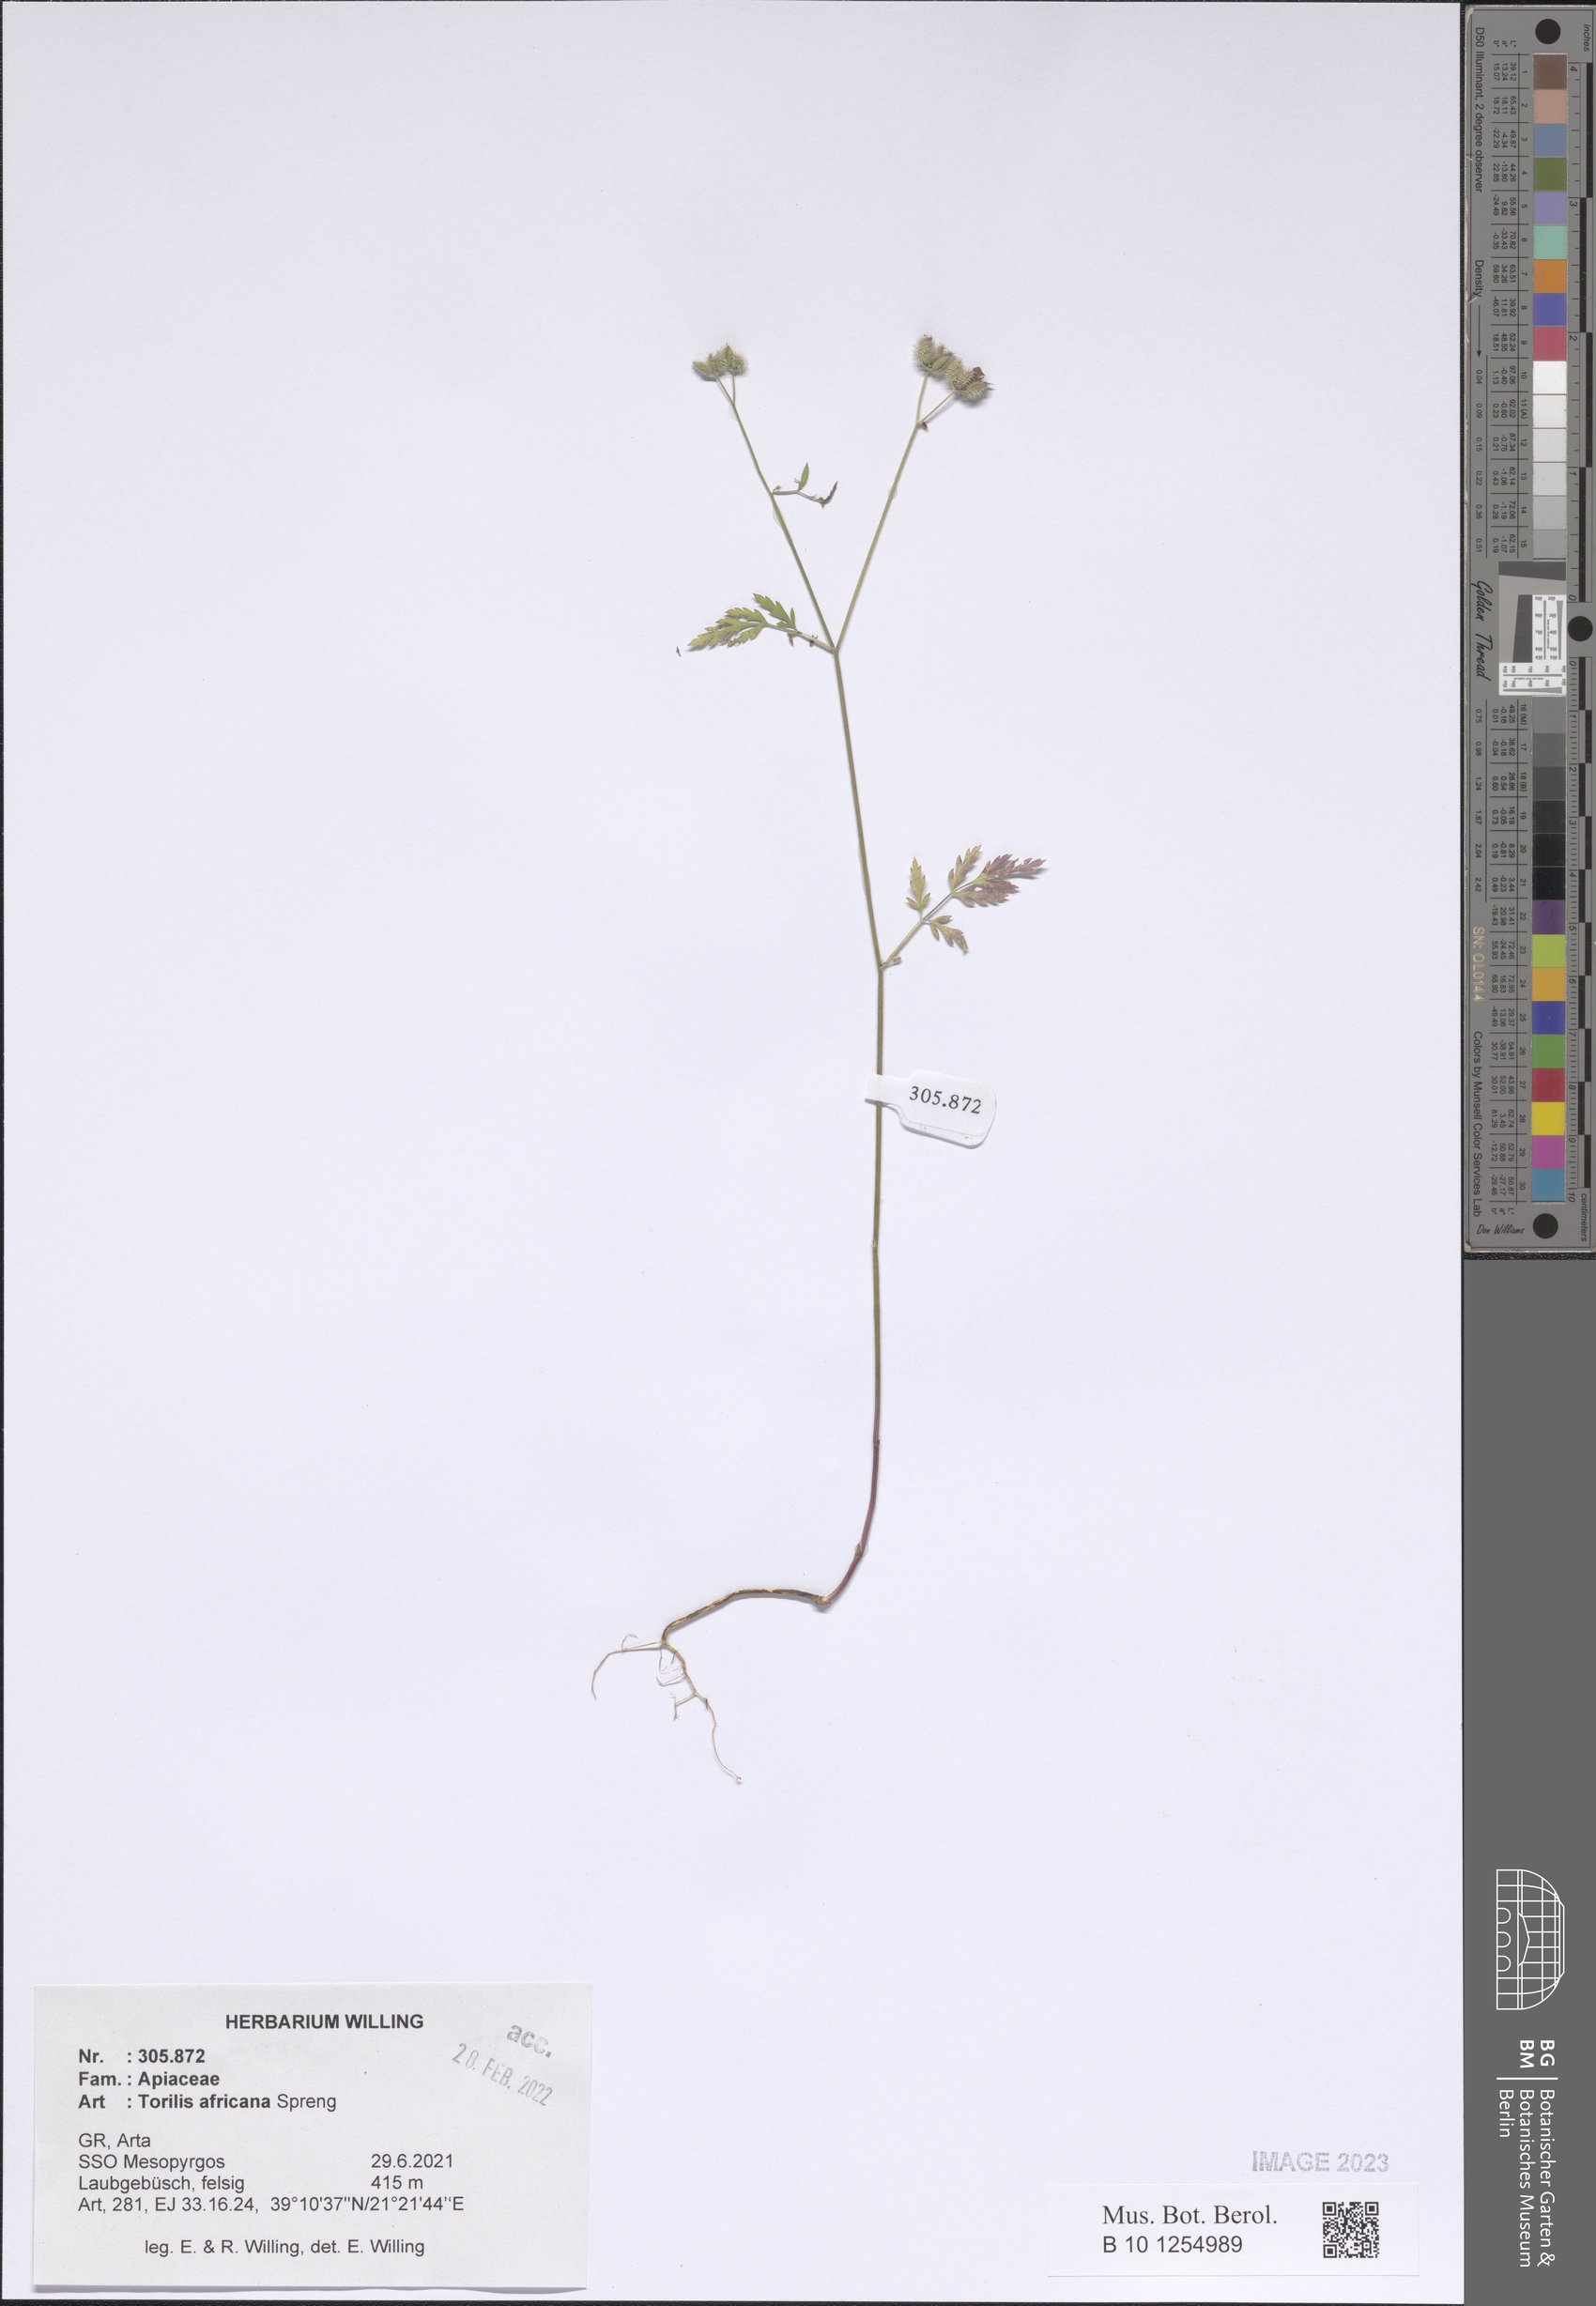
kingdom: Plantae
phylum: Tracheophyta
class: Magnoliopsida
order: Apiales
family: Apiaceae
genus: Torilis
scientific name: Torilis africana
